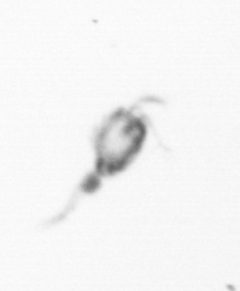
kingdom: Animalia
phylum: Arthropoda
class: Copepoda
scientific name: Copepoda
